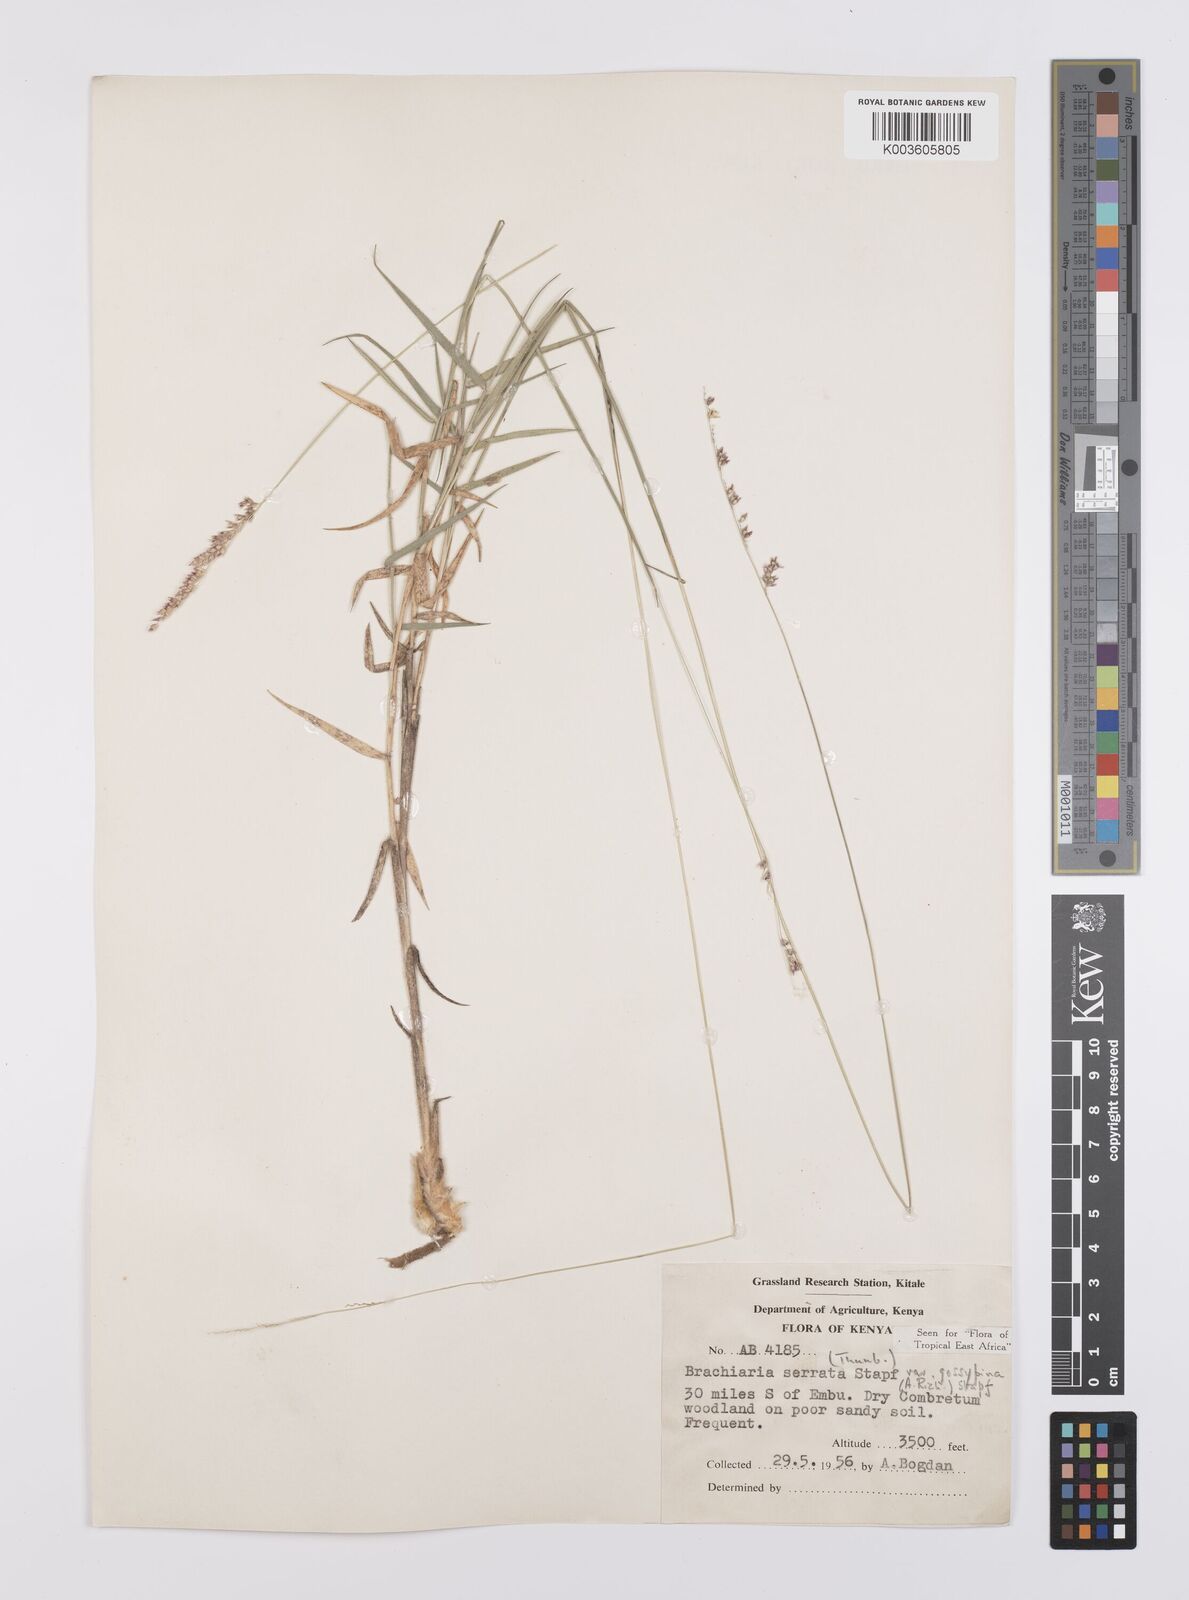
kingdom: Plantae
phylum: Tracheophyta
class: Liliopsida
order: Poales
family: Poaceae
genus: Urochloa
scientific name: Urochloa serrata
